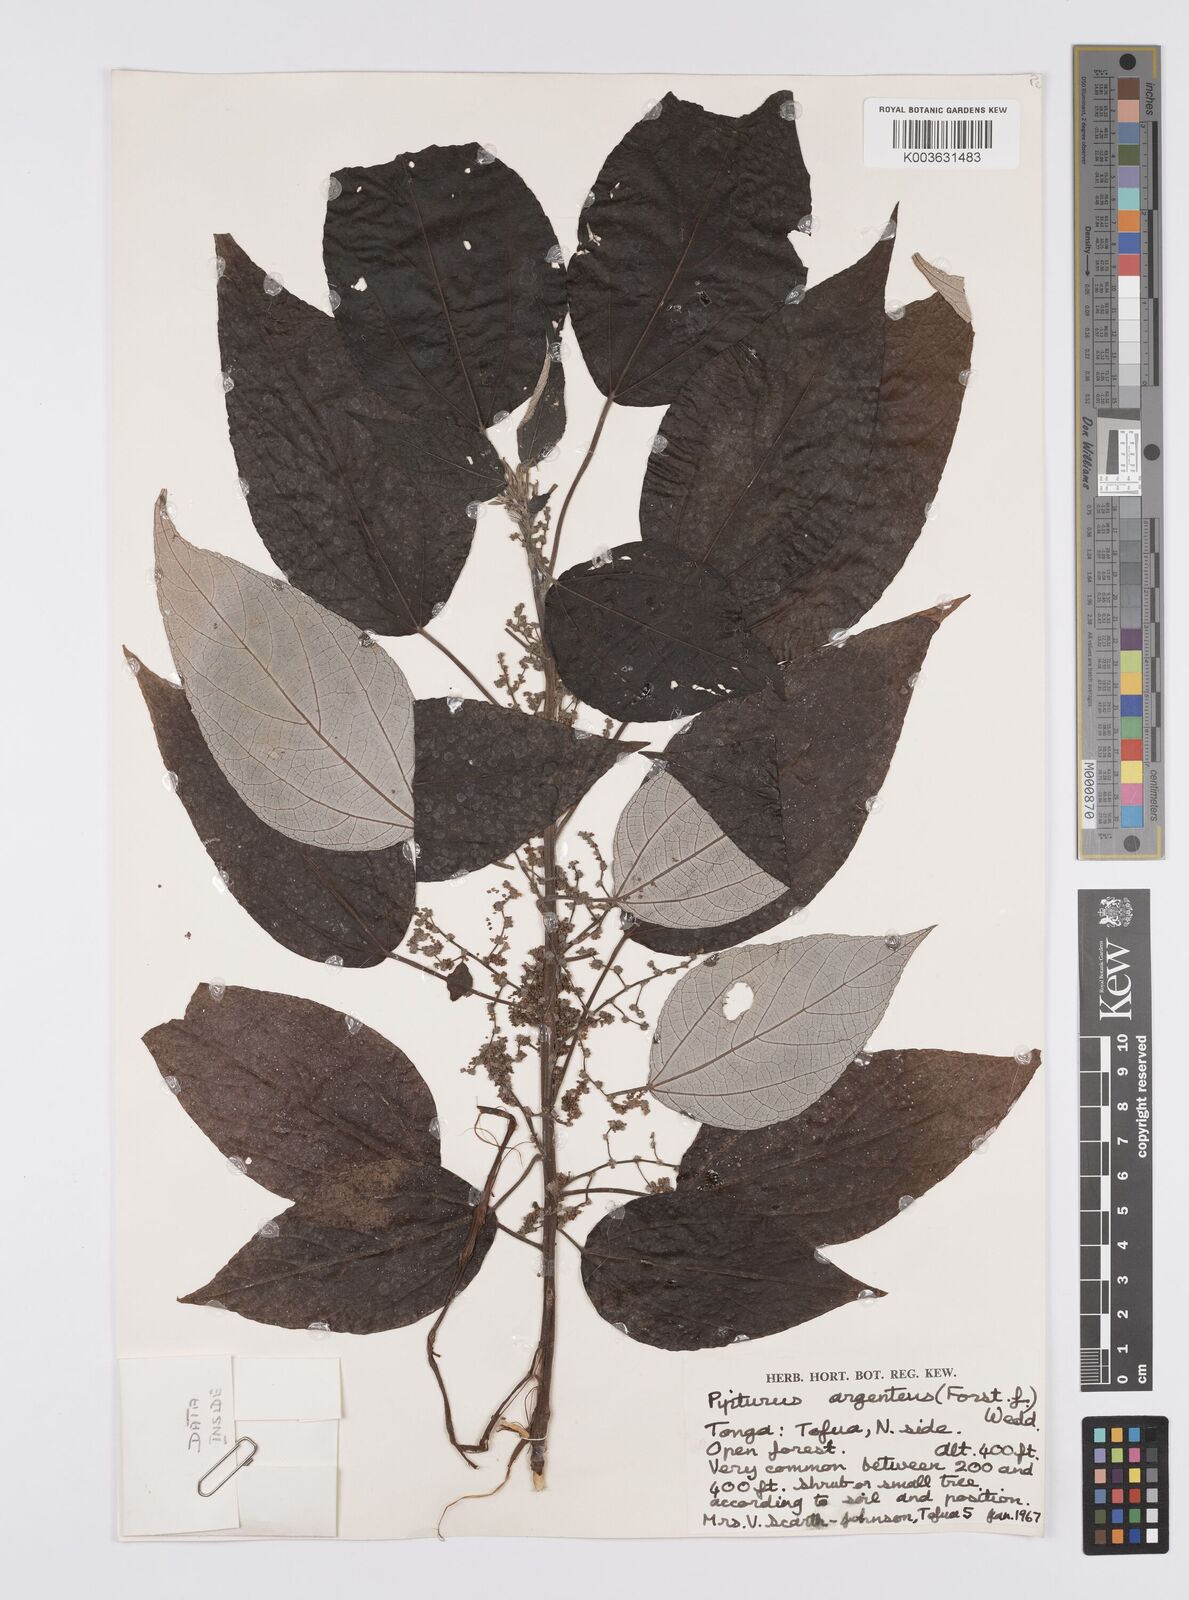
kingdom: Plantae
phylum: Tracheophyta
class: Magnoliopsida
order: Rosales
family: Urticaceae
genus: Pipturus
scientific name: Pipturus argenteus
